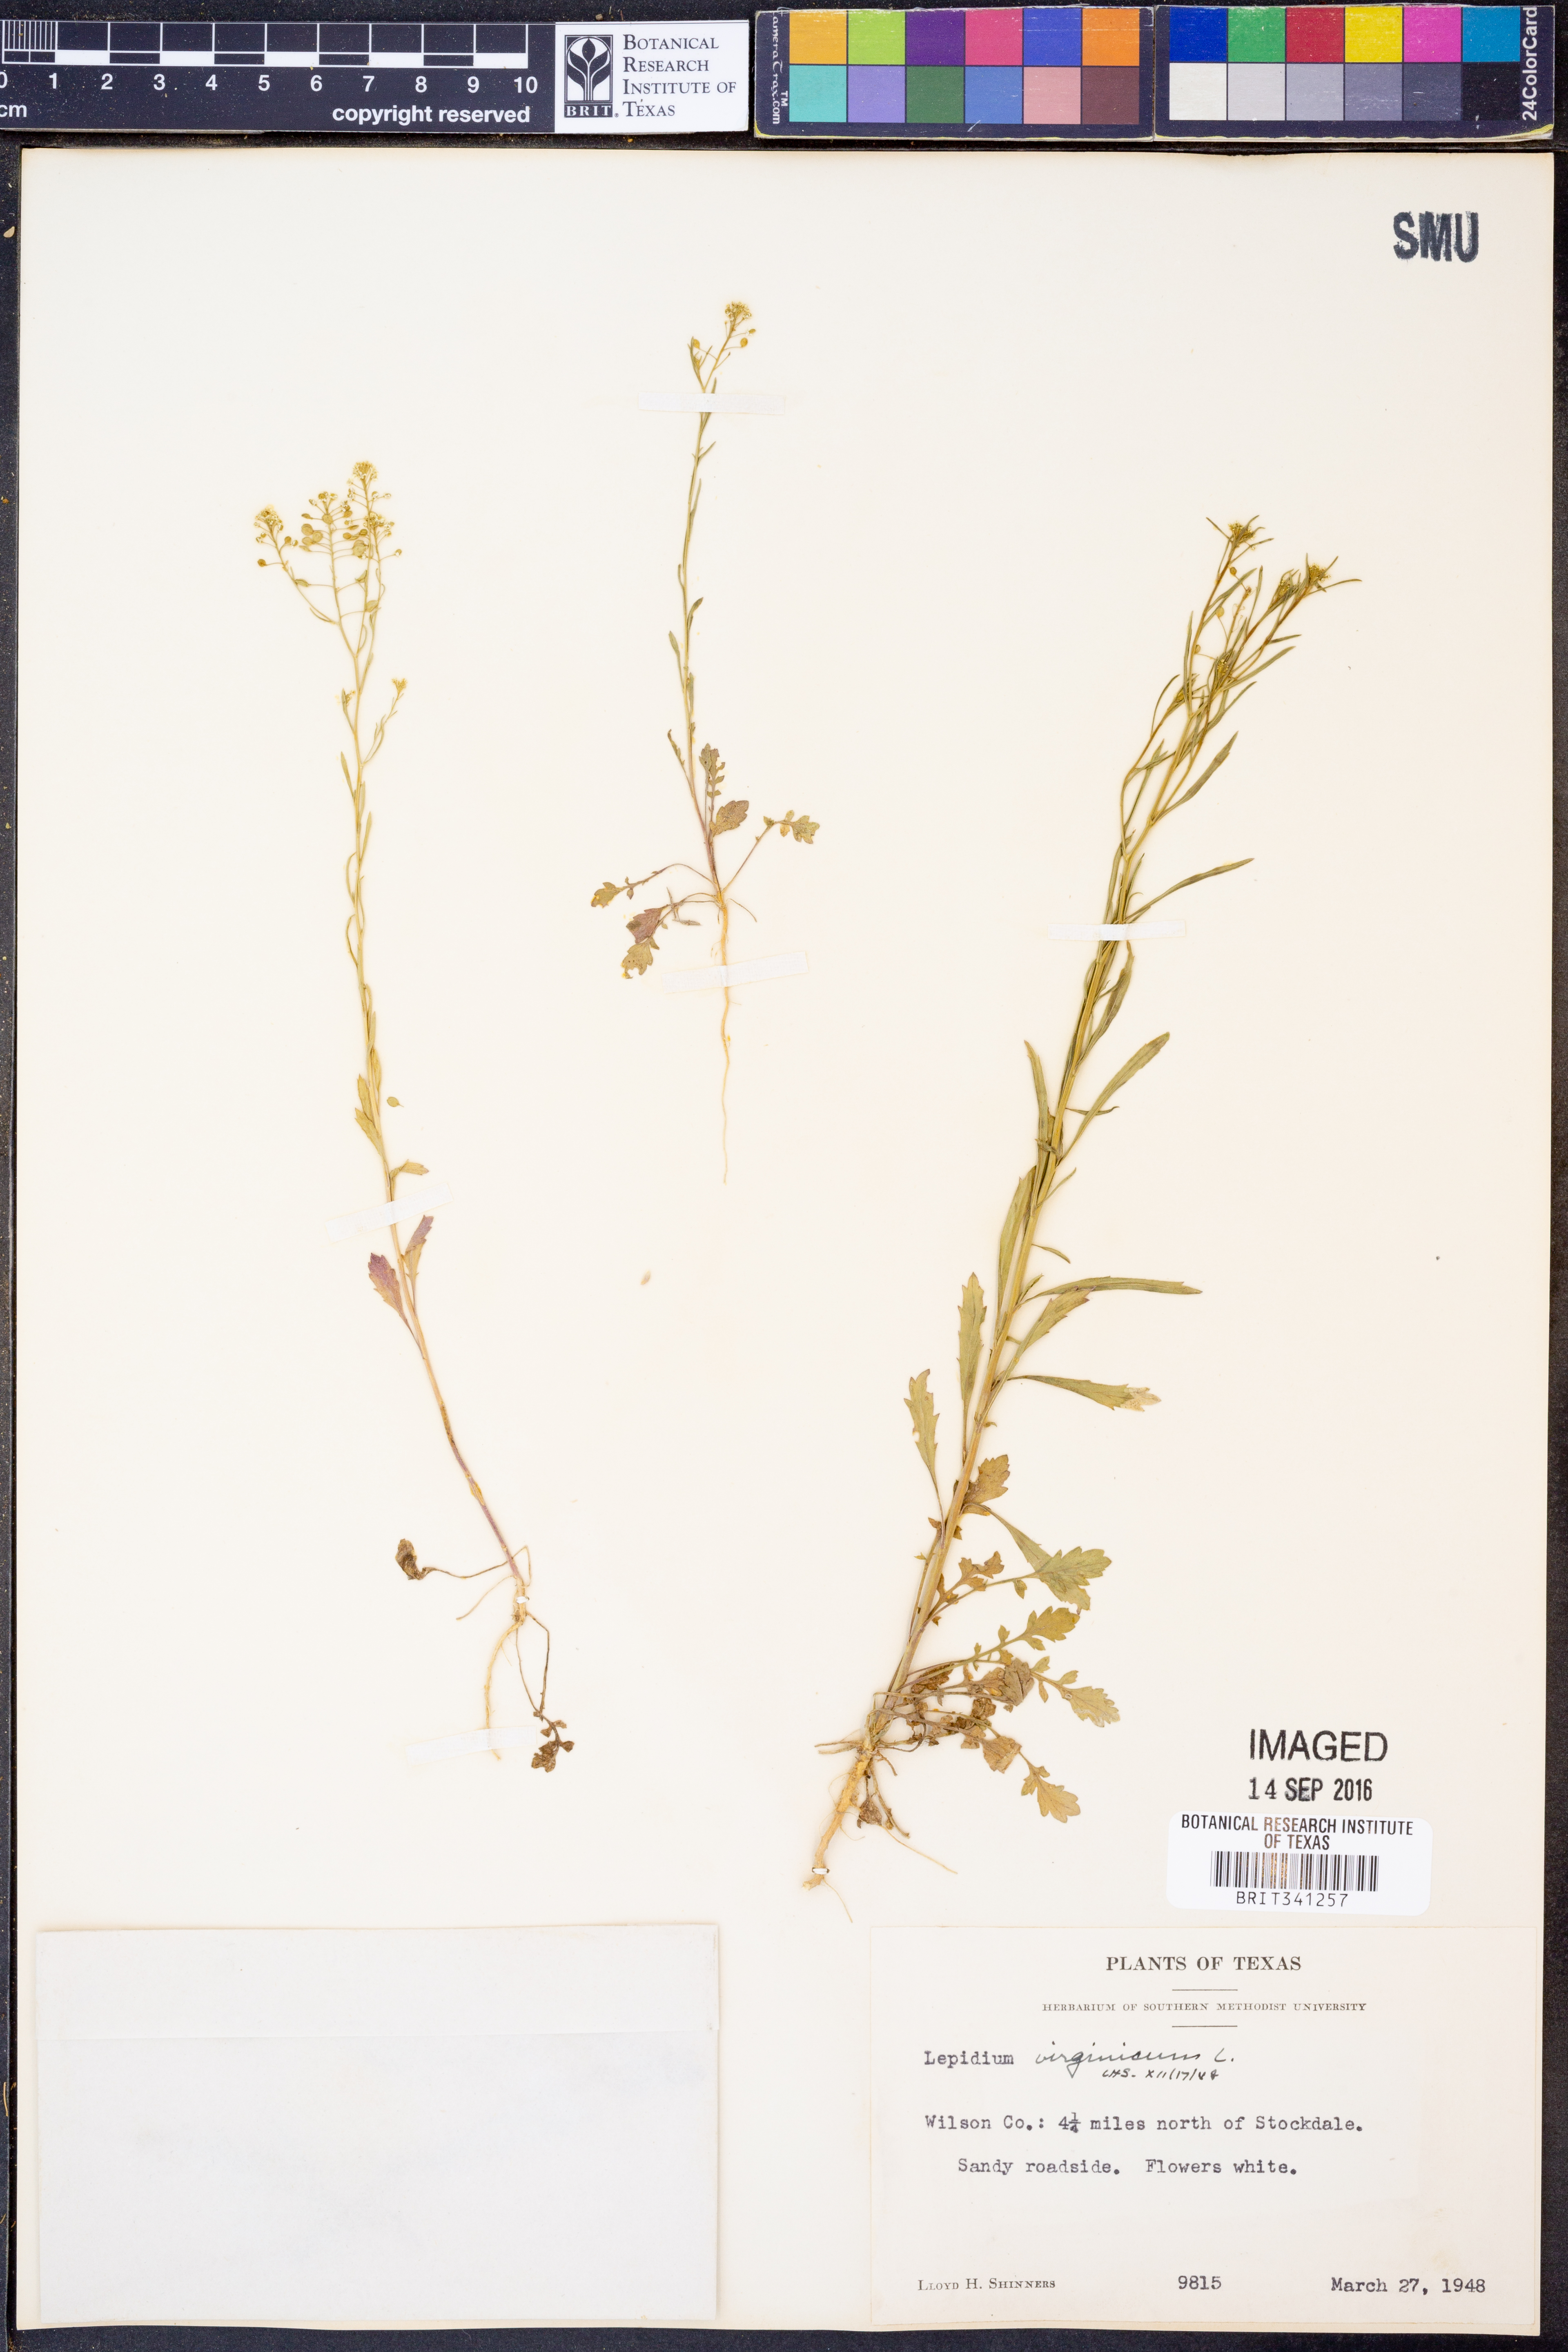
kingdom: Plantae
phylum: Tracheophyta
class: Magnoliopsida
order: Brassicales
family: Brassicaceae
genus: Lepidium
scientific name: Lepidium virginicum
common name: Least pepperwort
